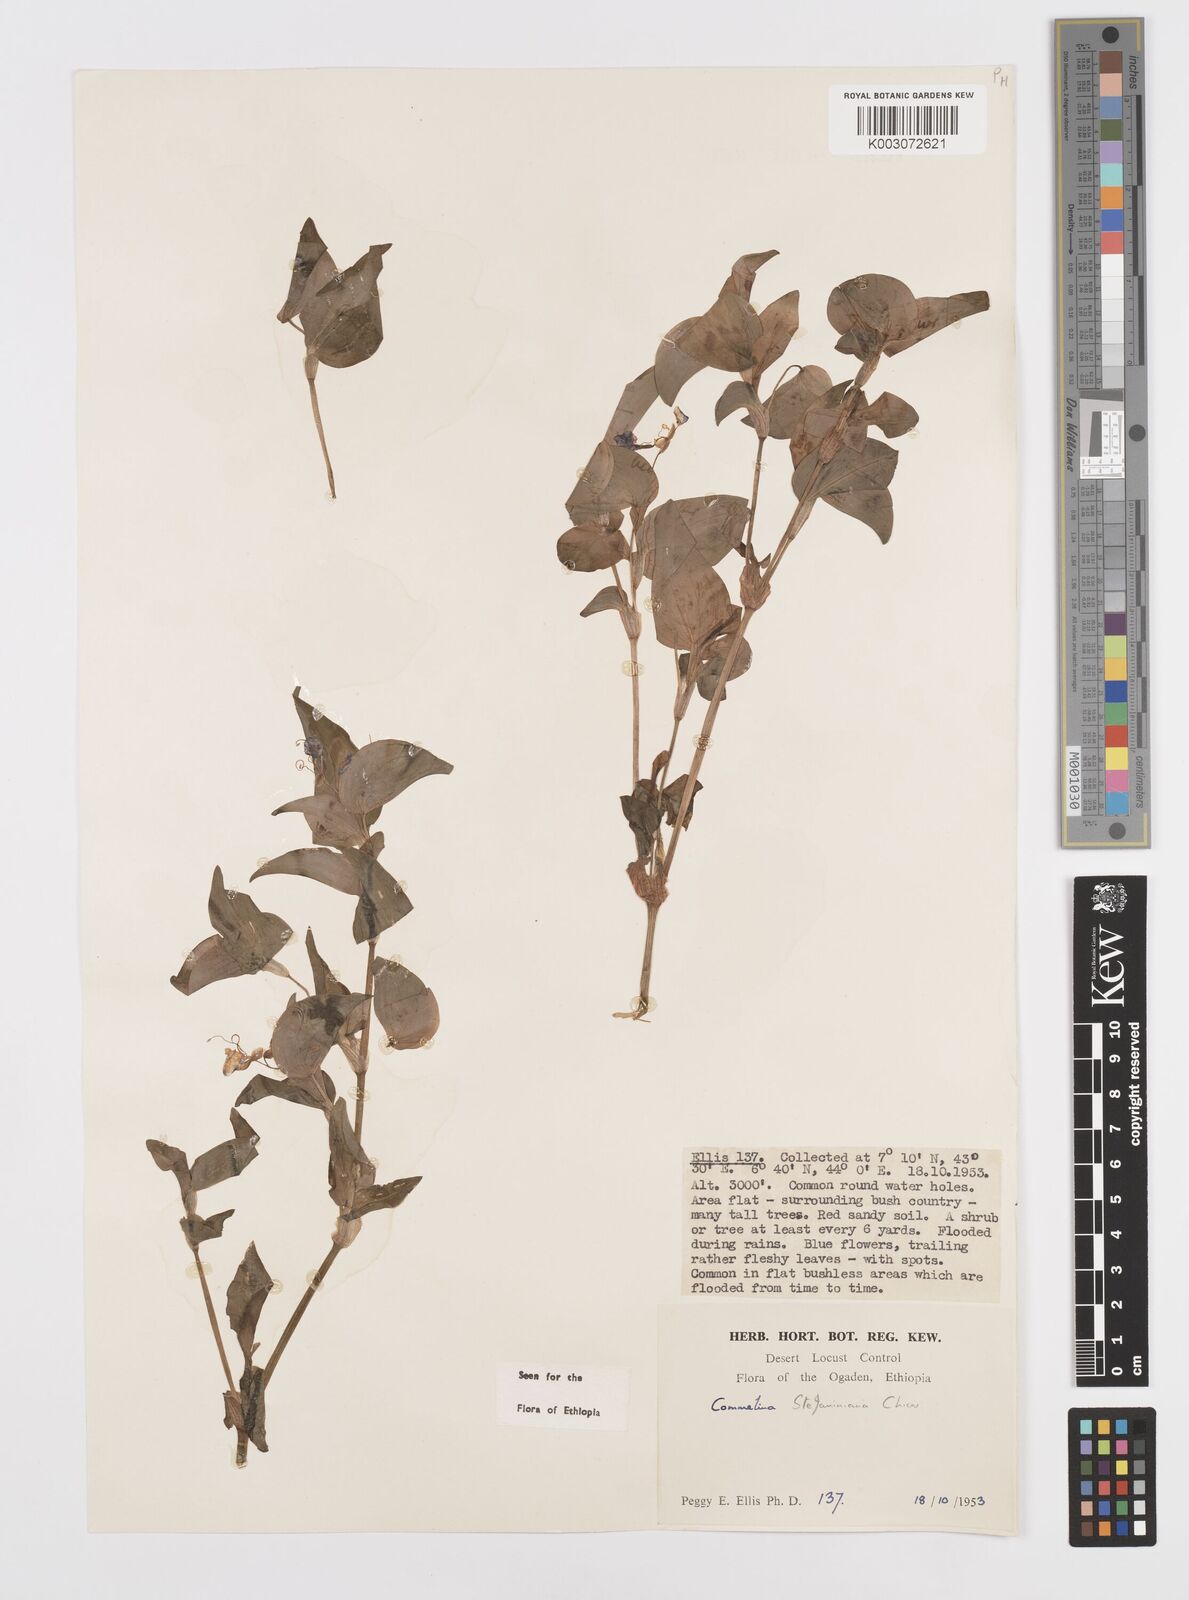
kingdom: Plantae
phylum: Tracheophyta
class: Liliopsida
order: Commelinales
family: Commelinaceae
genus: Commelina
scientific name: Commelina stefaniniana
